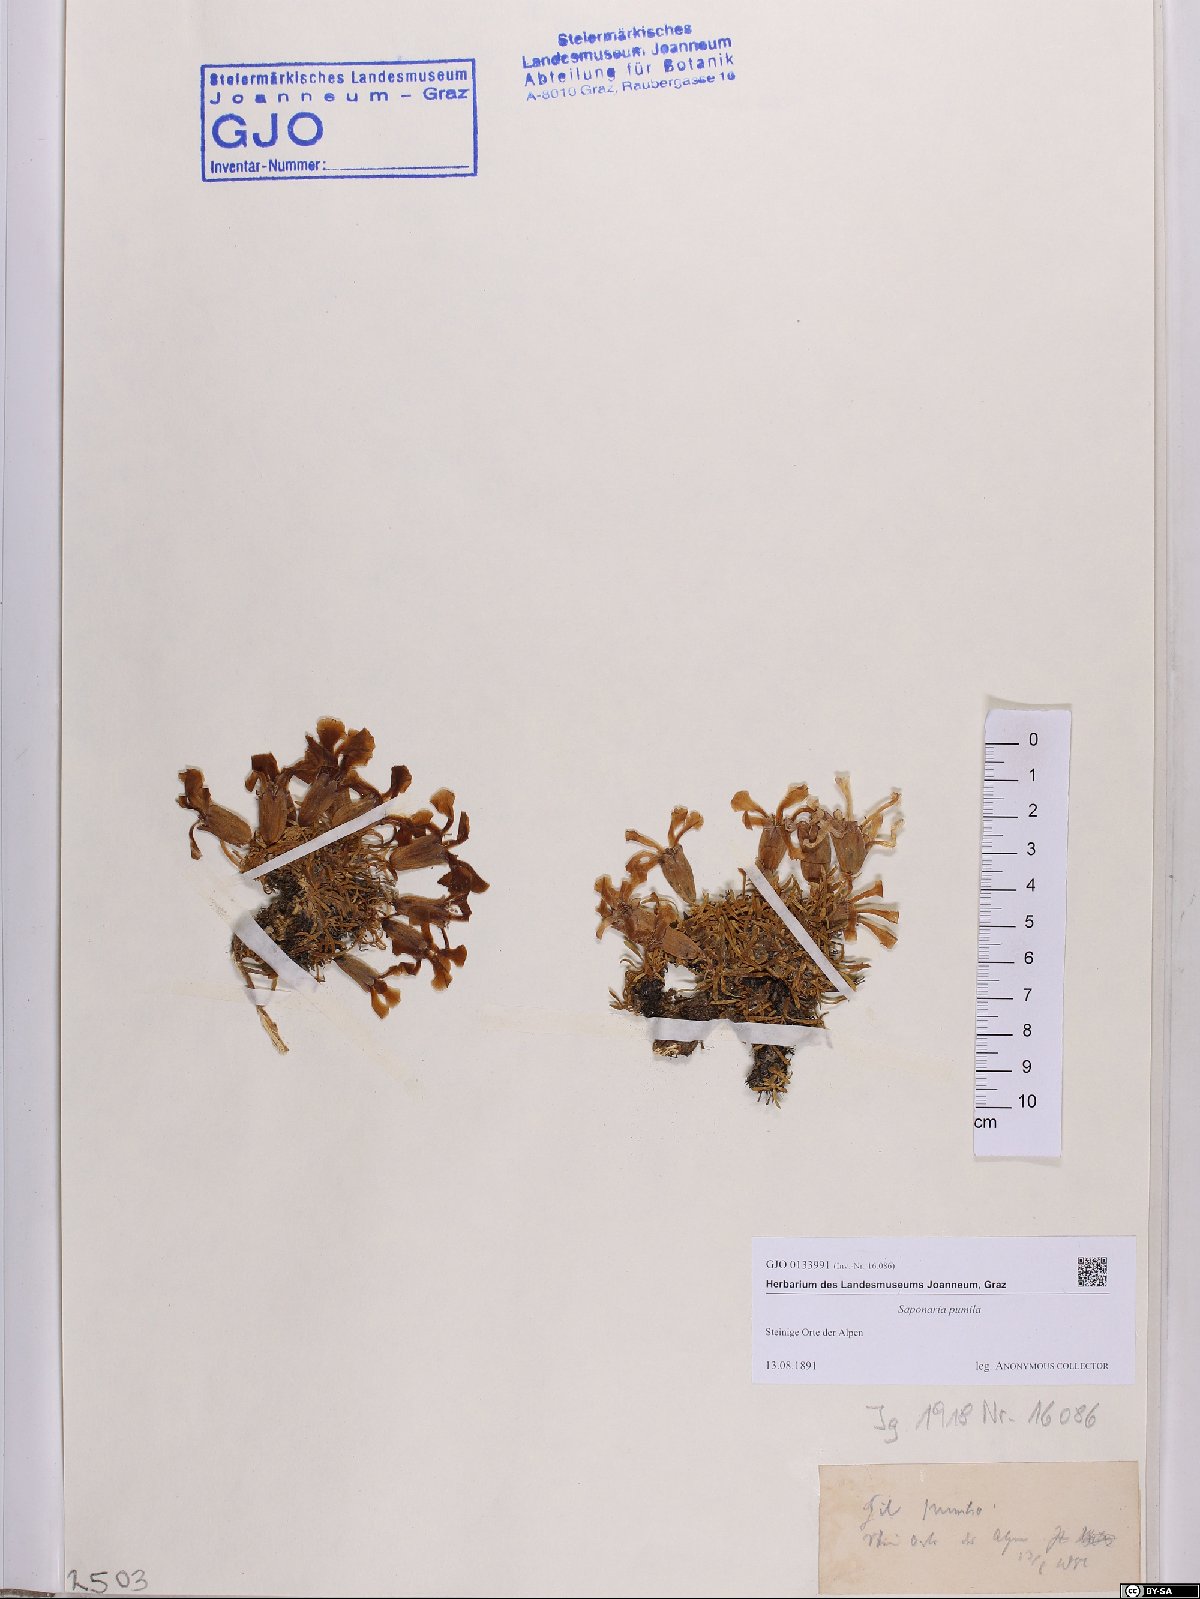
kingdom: Plantae
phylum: Tracheophyta
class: Magnoliopsida
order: Caryophyllales
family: Caryophyllaceae
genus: Saponaria
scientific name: Saponaria pumila
